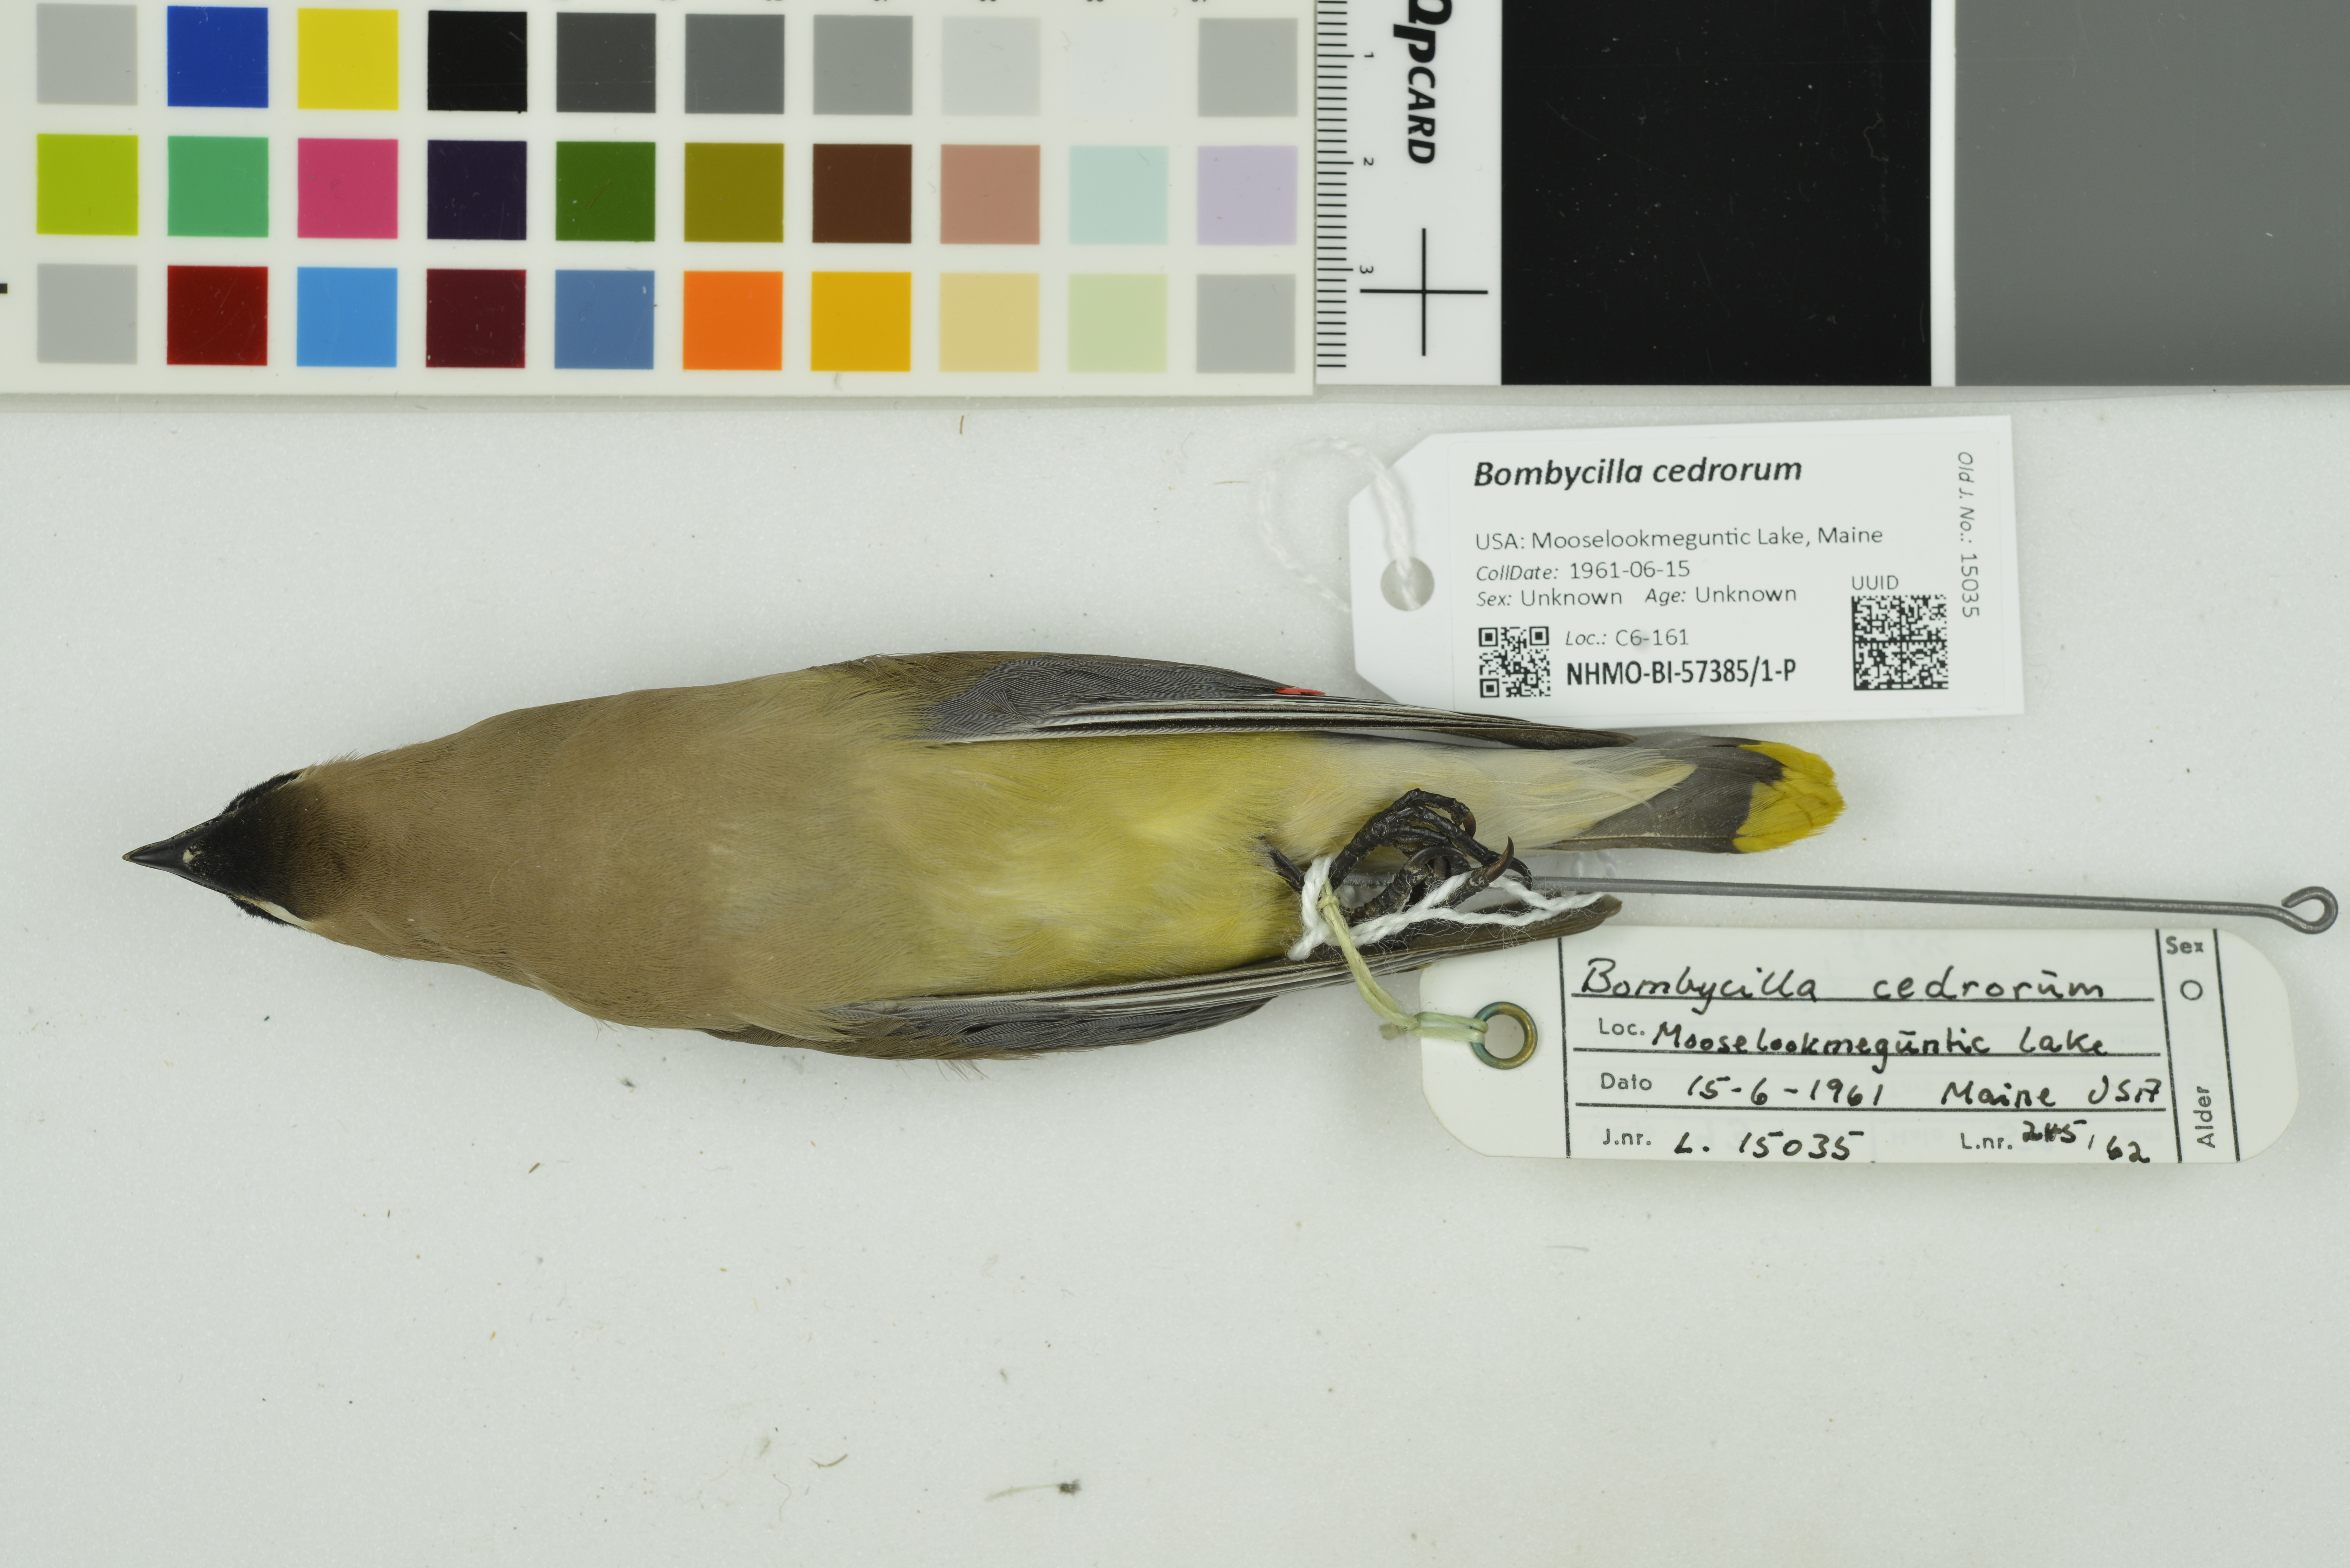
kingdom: Animalia
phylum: Chordata
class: Aves
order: Passeriformes
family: Bombycillidae
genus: Bombycilla
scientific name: Bombycilla cedrorum
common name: Cedar waxwing
